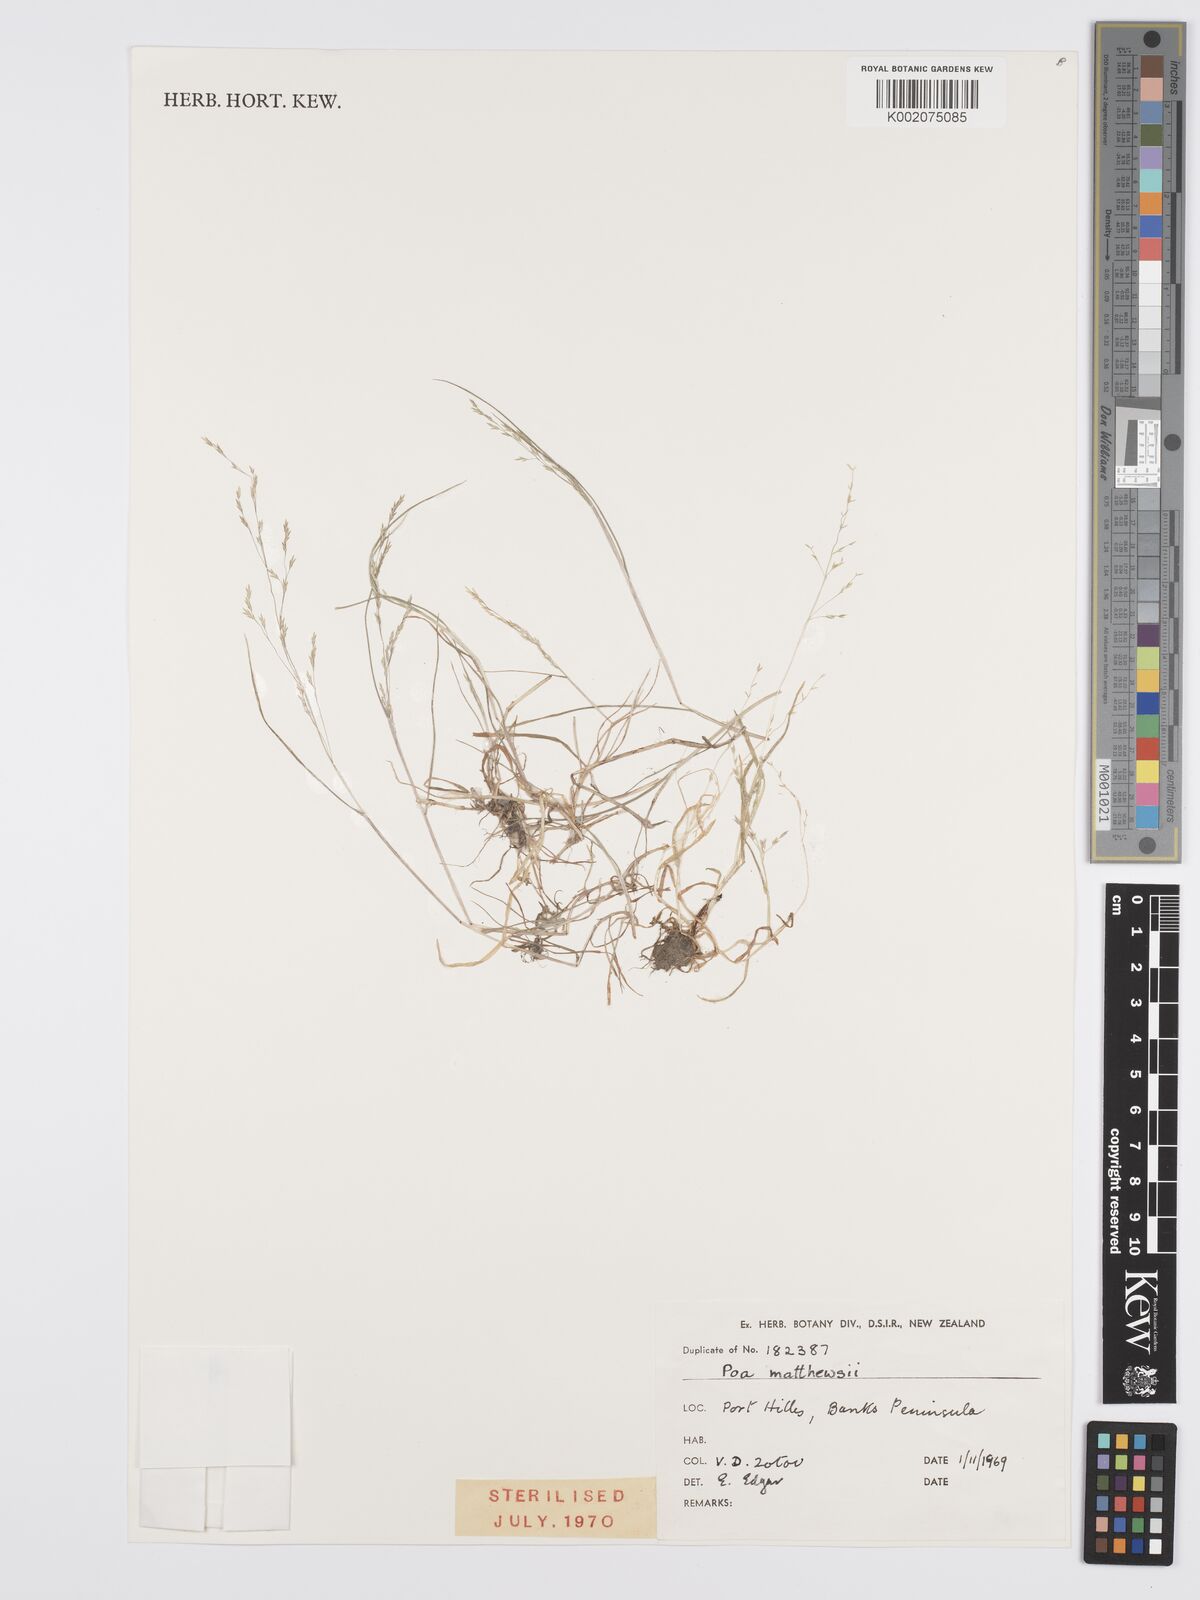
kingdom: Plantae
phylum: Tracheophyta
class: Liliopsida
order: Poales
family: Poaceae
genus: Poa
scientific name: Poa matthewsii
